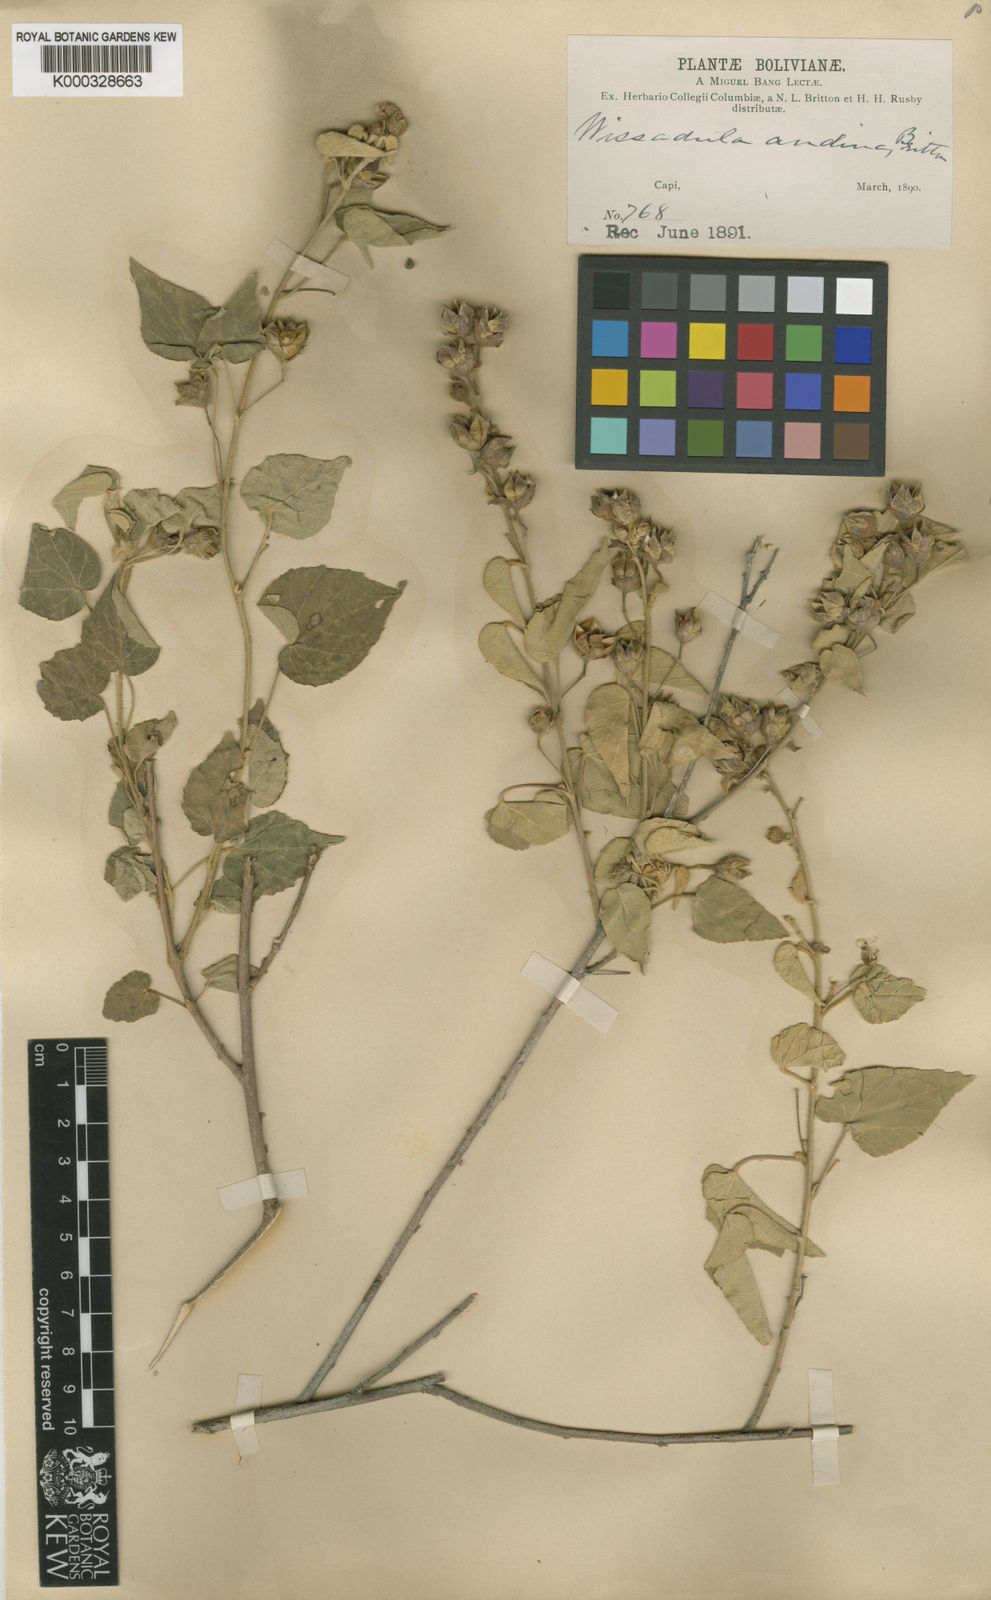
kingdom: Plantae
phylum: Tracheophyta
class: Magnoliopsida
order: Malvales
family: Malvaceae
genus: Wissadula
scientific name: Wissadula andina
